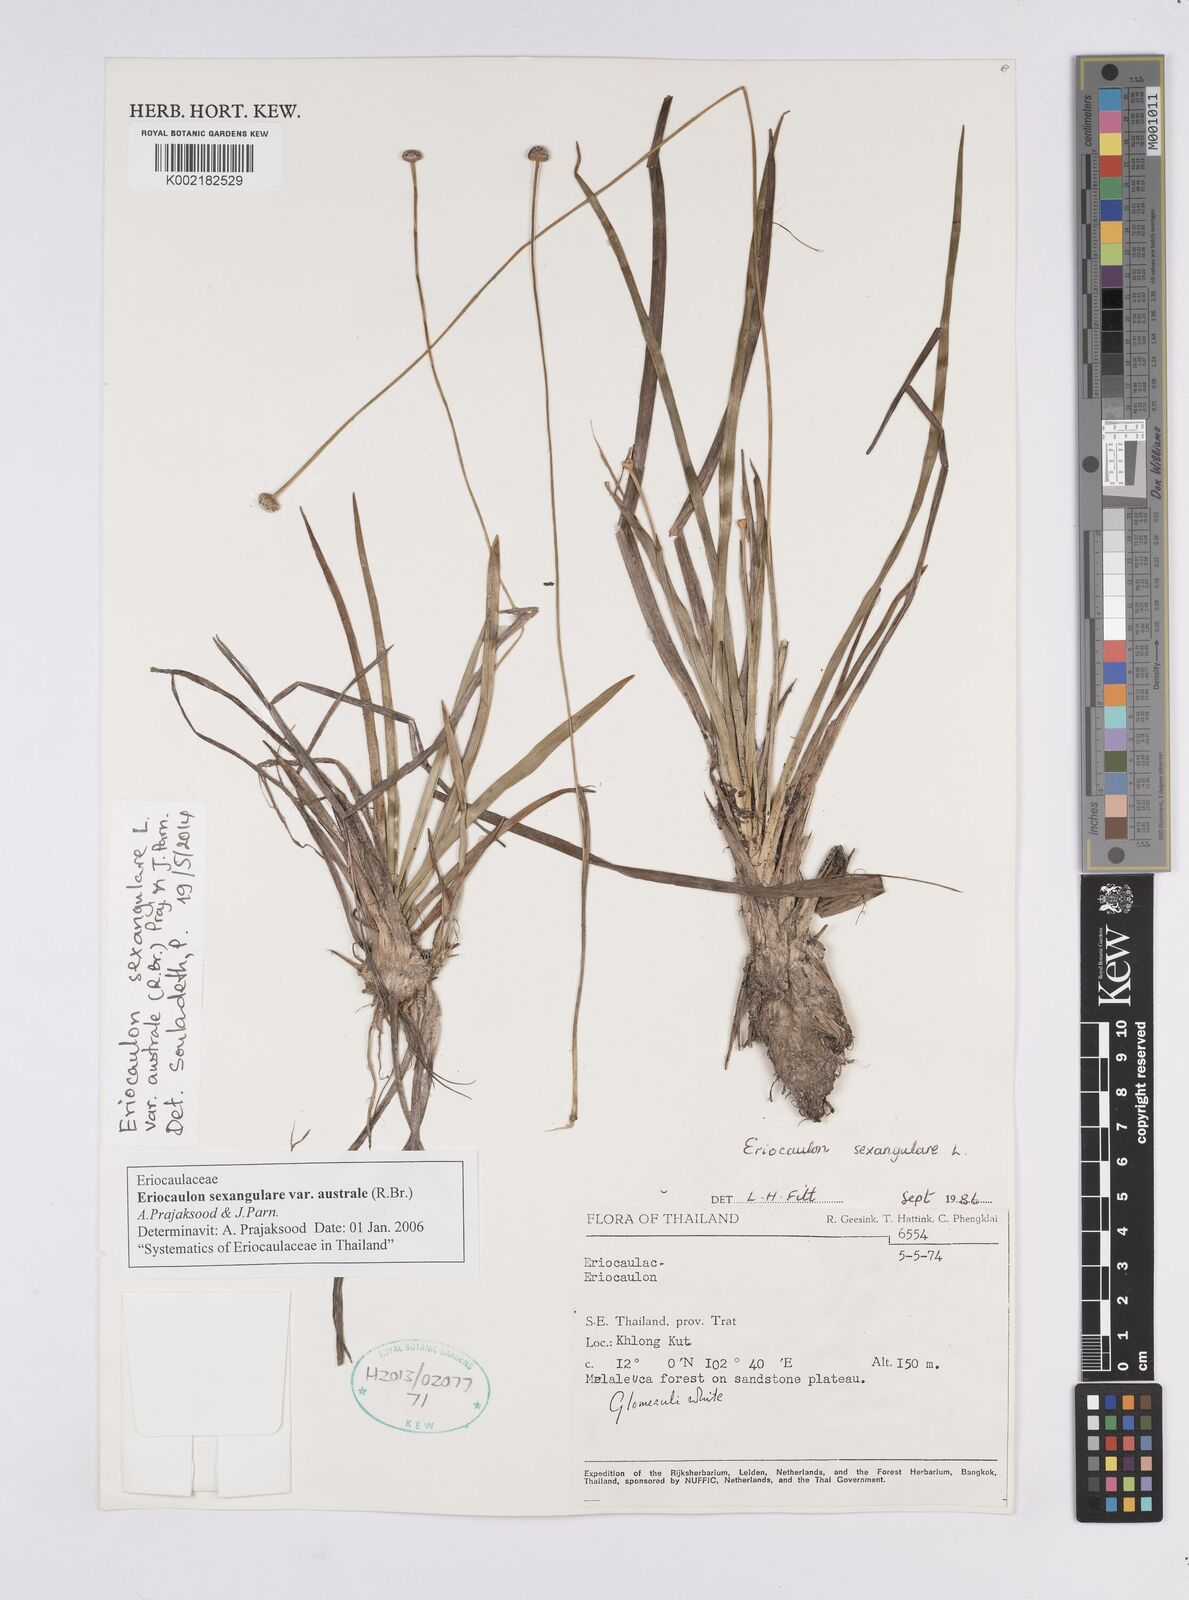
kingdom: Plantae
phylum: Tracheophyta
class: Liliopsida
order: Poales
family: Eriocaulaceae
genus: Eriocaulon
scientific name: Eriocaulon australe
